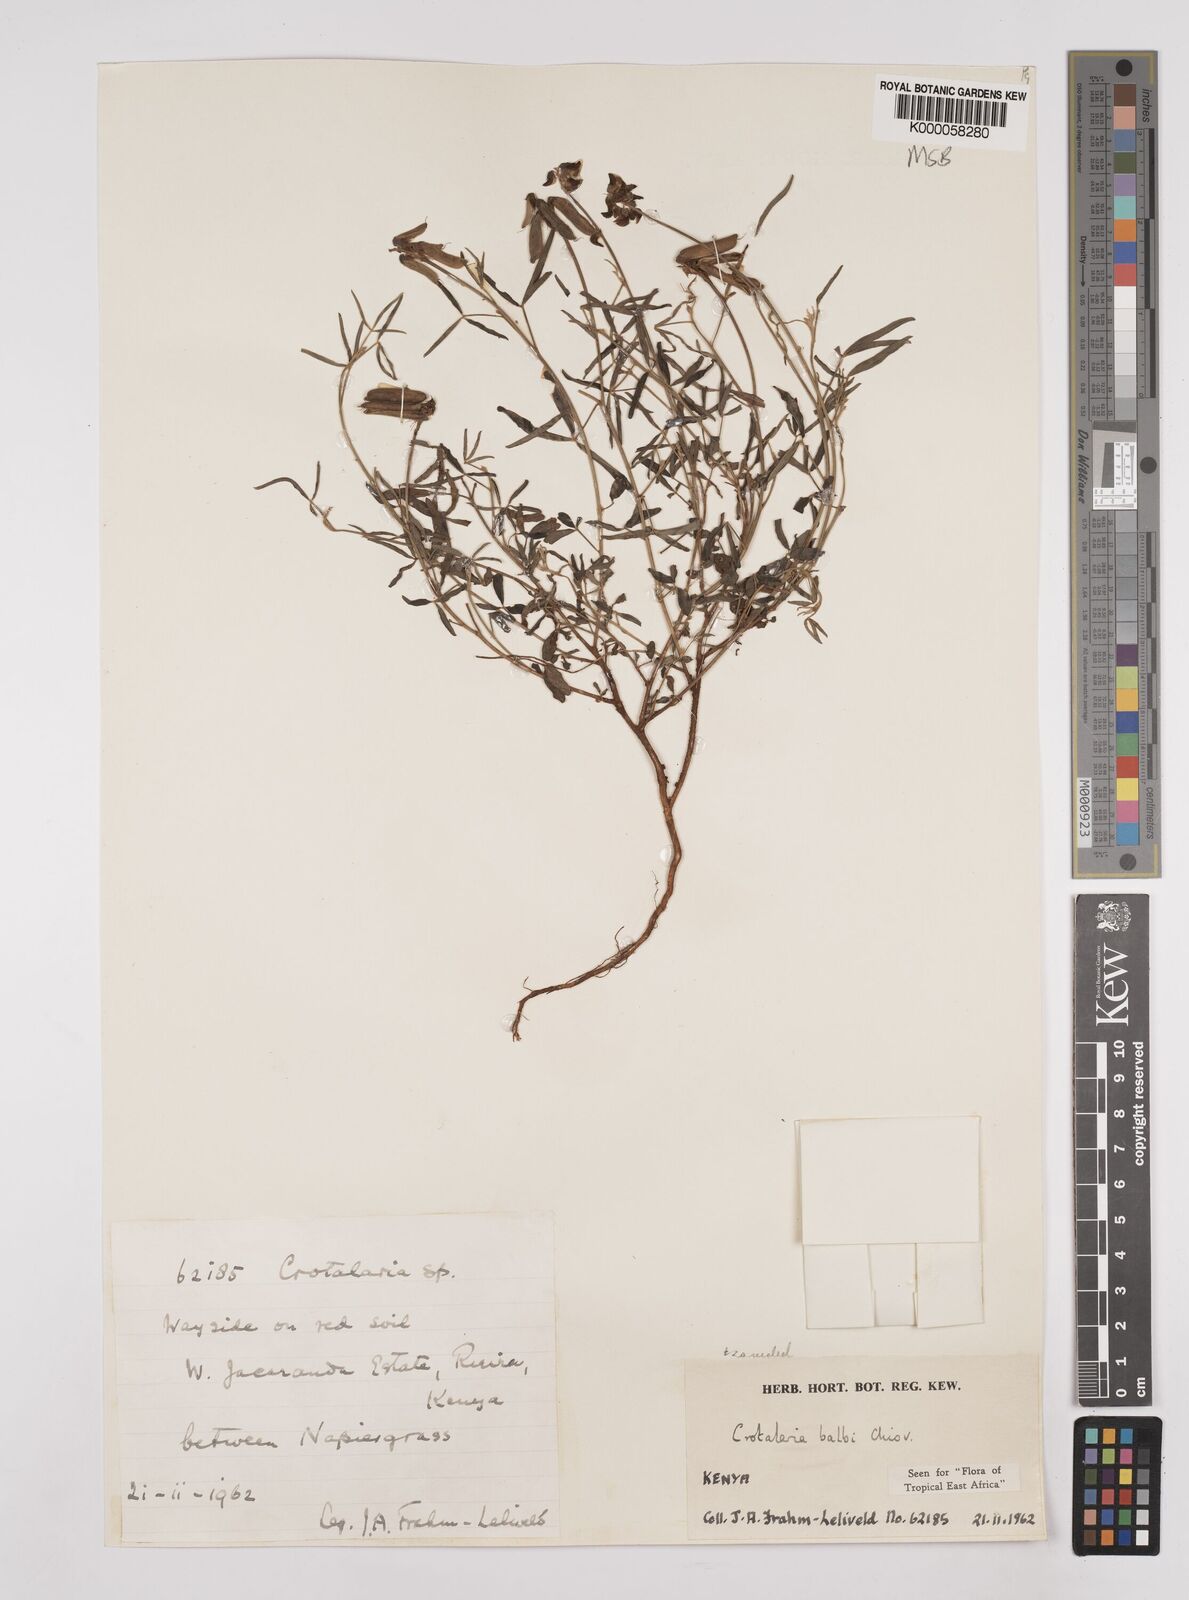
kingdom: Plantae
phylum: Tracheophyta
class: Magnoliopsida
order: Fabales
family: Fabaceae
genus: Crotalaria
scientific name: Crotalaria balbi
